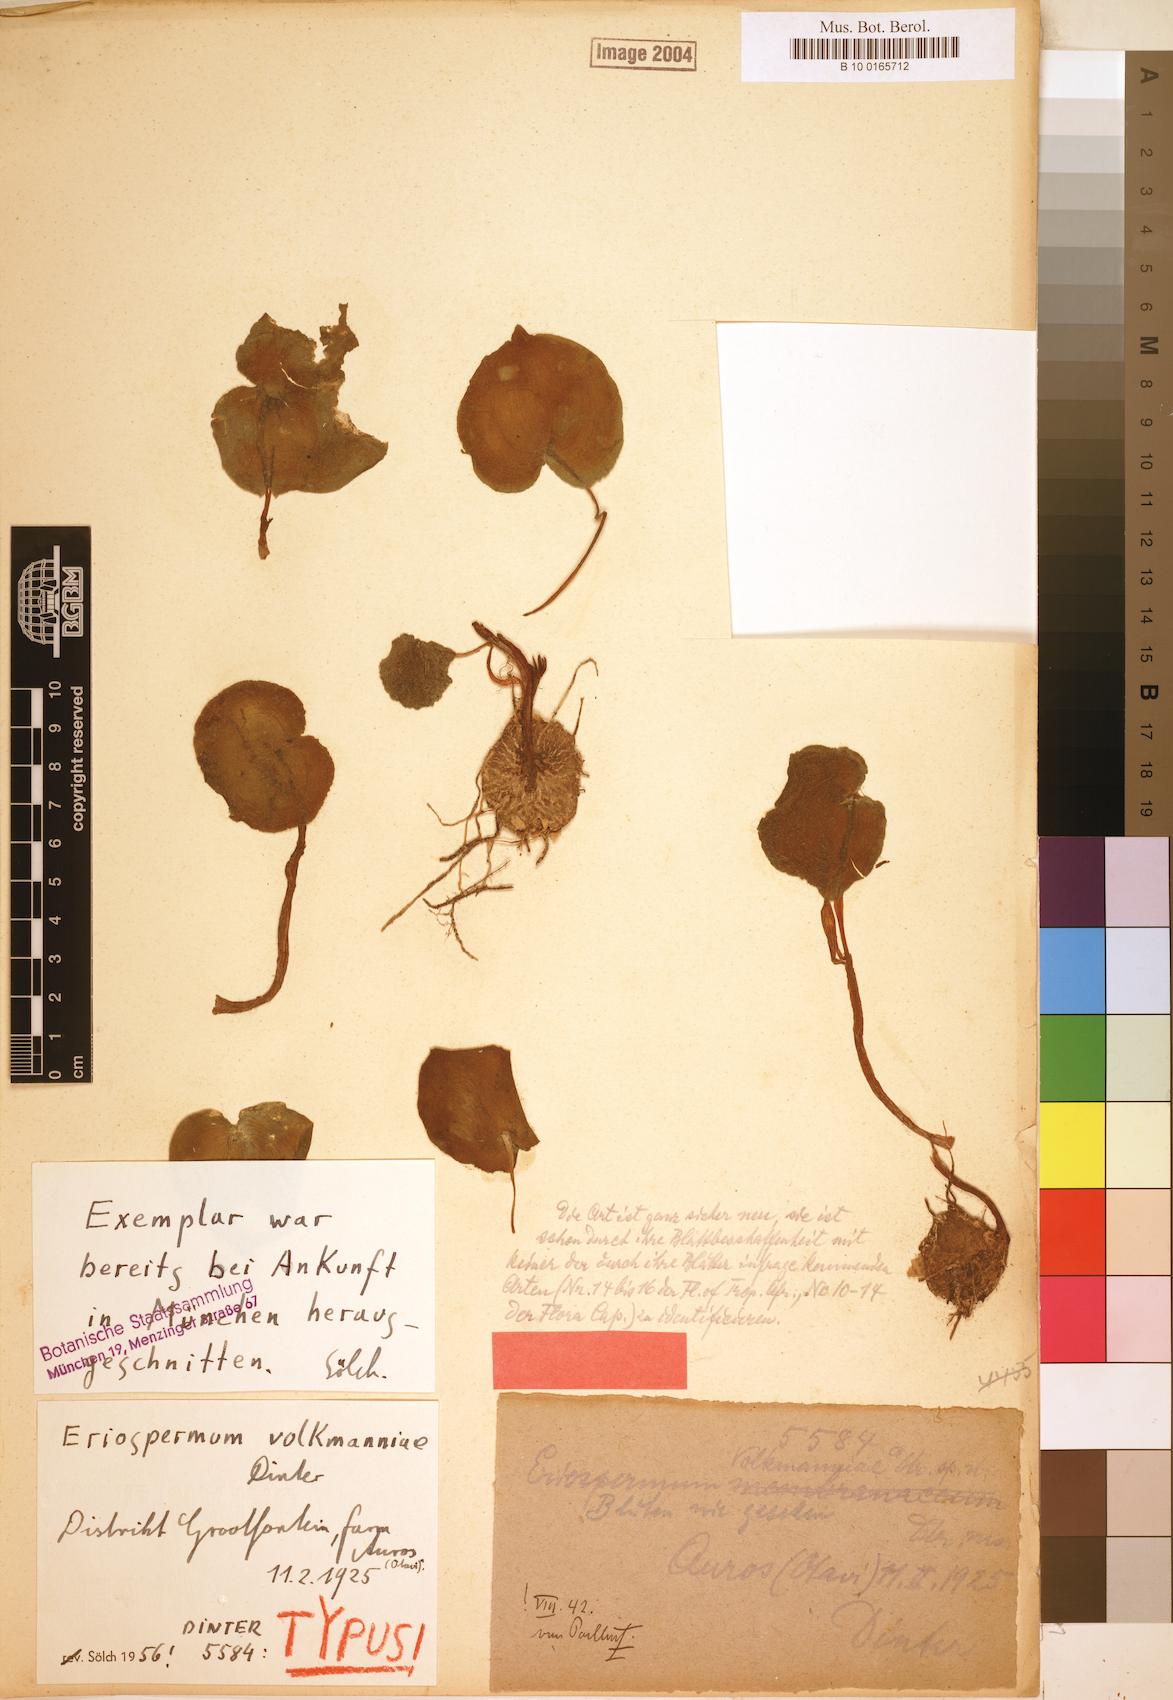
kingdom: Plantae
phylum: Tracheophyta
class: Liliopsida
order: Asparagales
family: Asparagaceae
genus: Eriospermum
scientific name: Eriospermum volkmanniae
